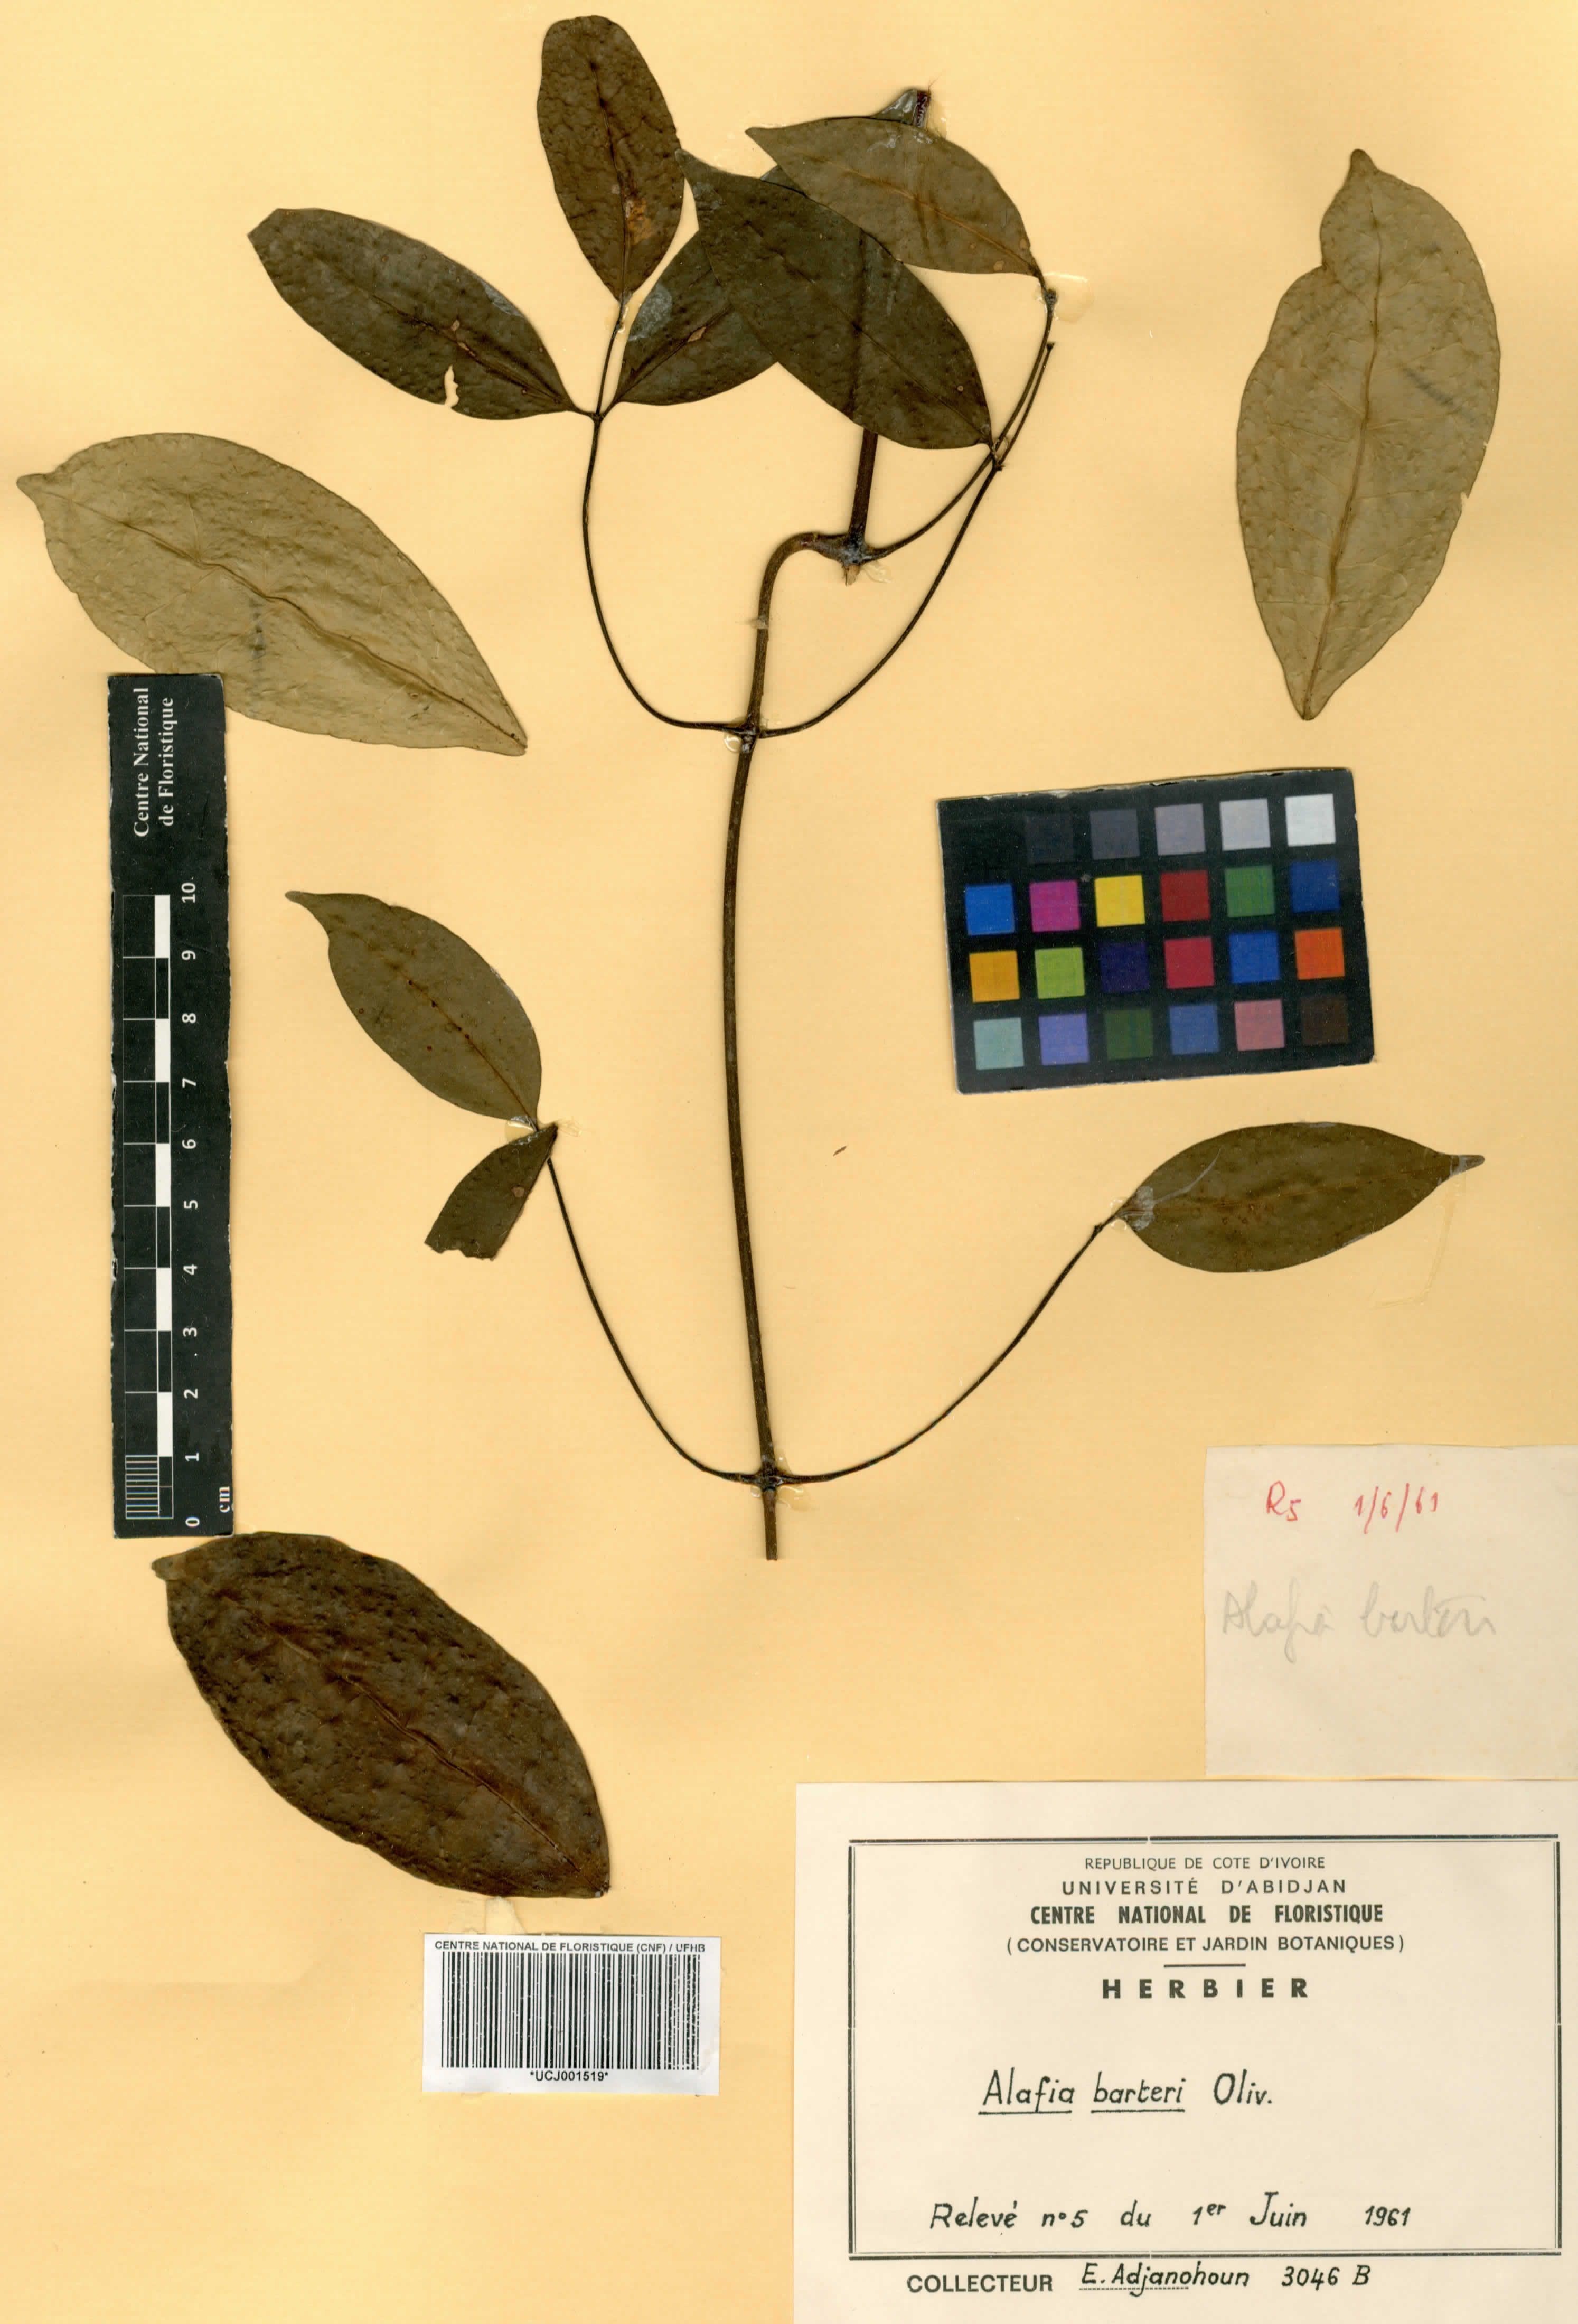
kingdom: Plantae
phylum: Tracheophyta
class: Magnoliopsida
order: Gentianales
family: Apocynaceae
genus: Alafia
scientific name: Alafia barteri
